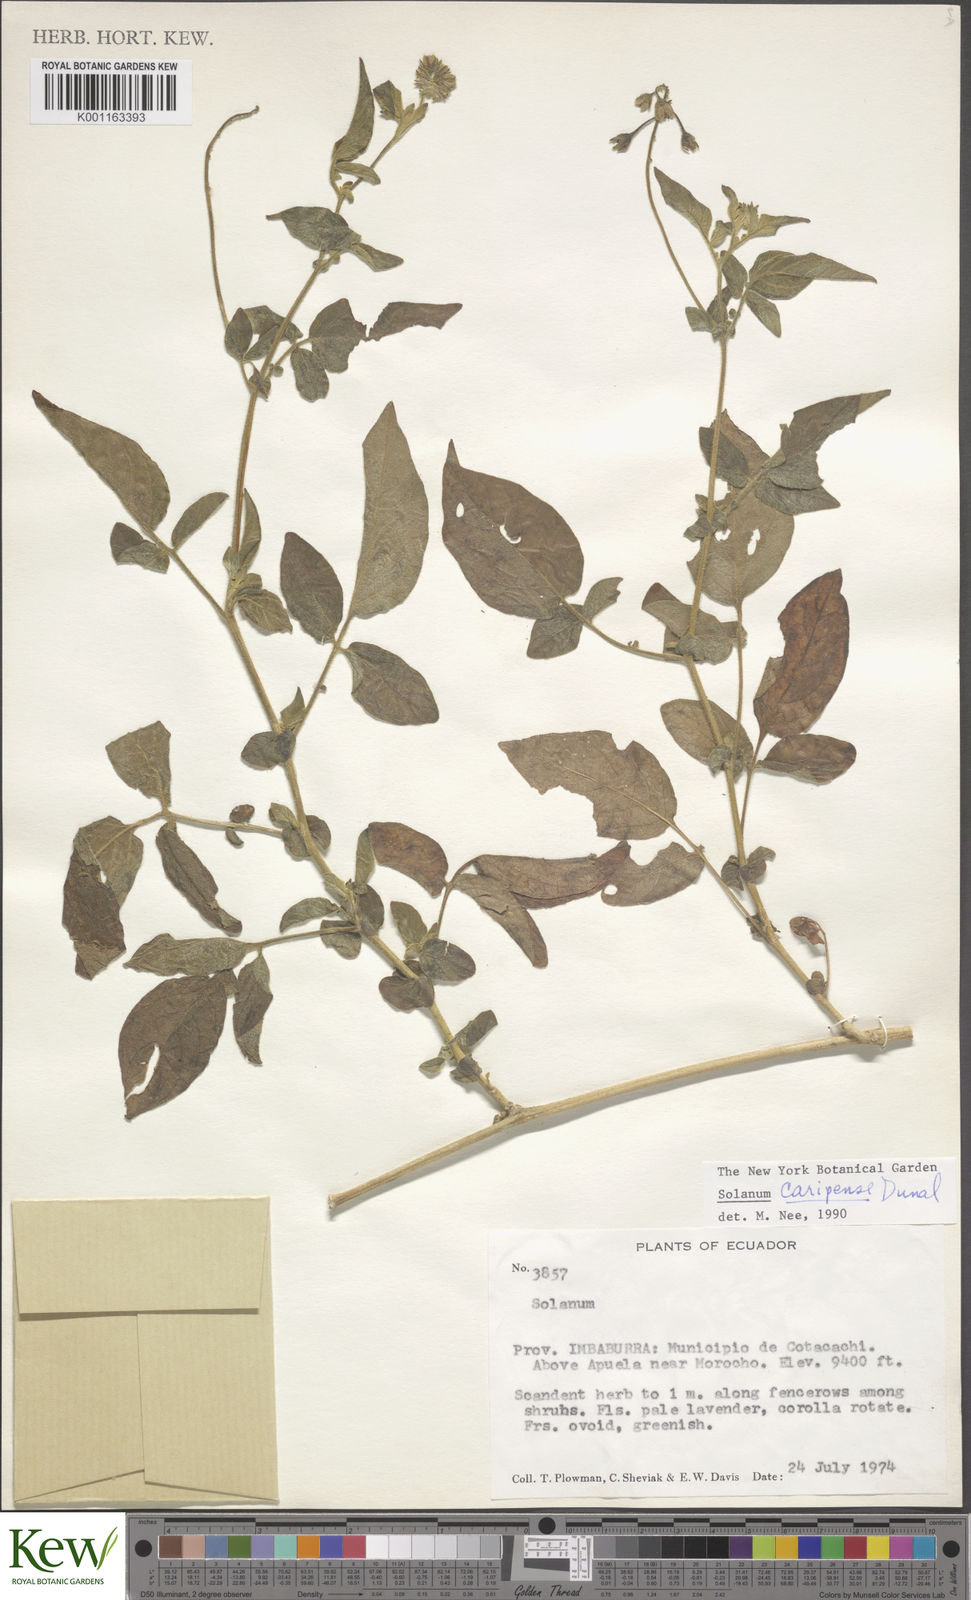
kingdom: Plantae
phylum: Tracheophyta
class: Magnoliopsida
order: Solanales
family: Solanaceae
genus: Solanum
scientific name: Solanum caripense
